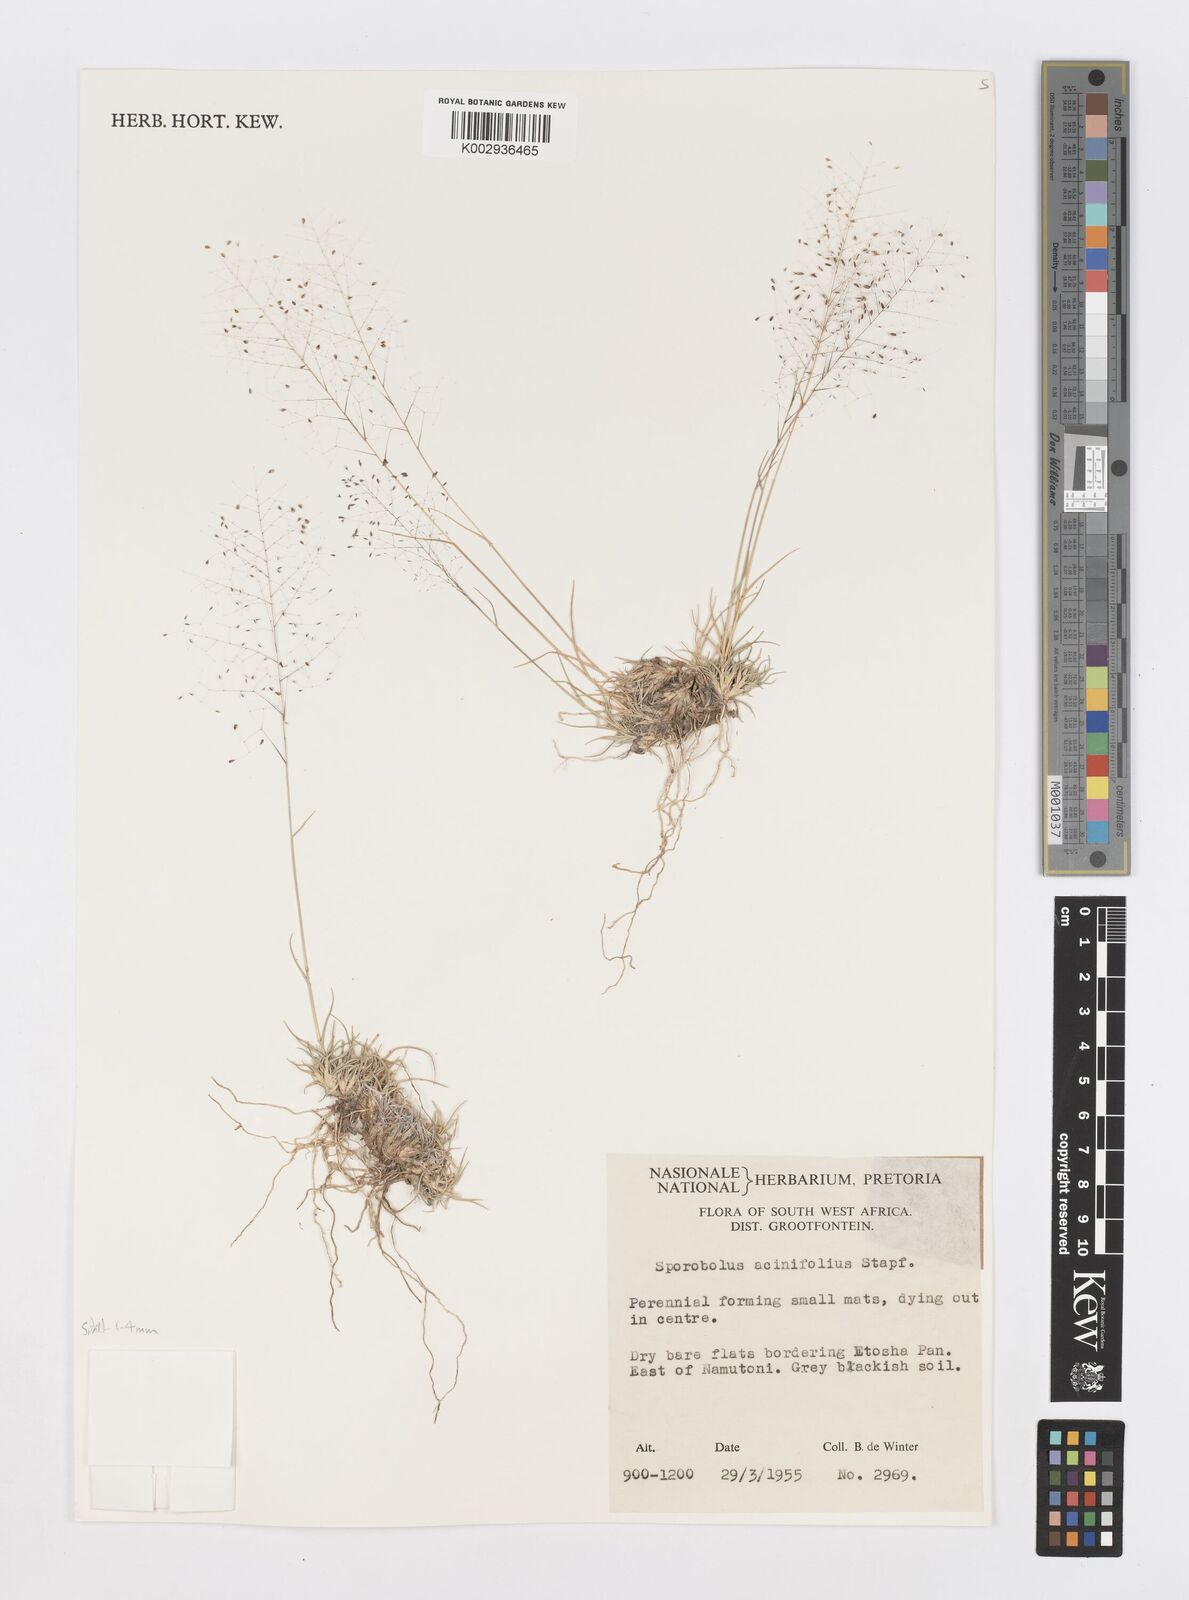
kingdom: Plantae
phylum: Tracheophyta
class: Liliopsida
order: Poales
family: Poaceae
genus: Sporobolus
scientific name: Sporobolus acinifolius
